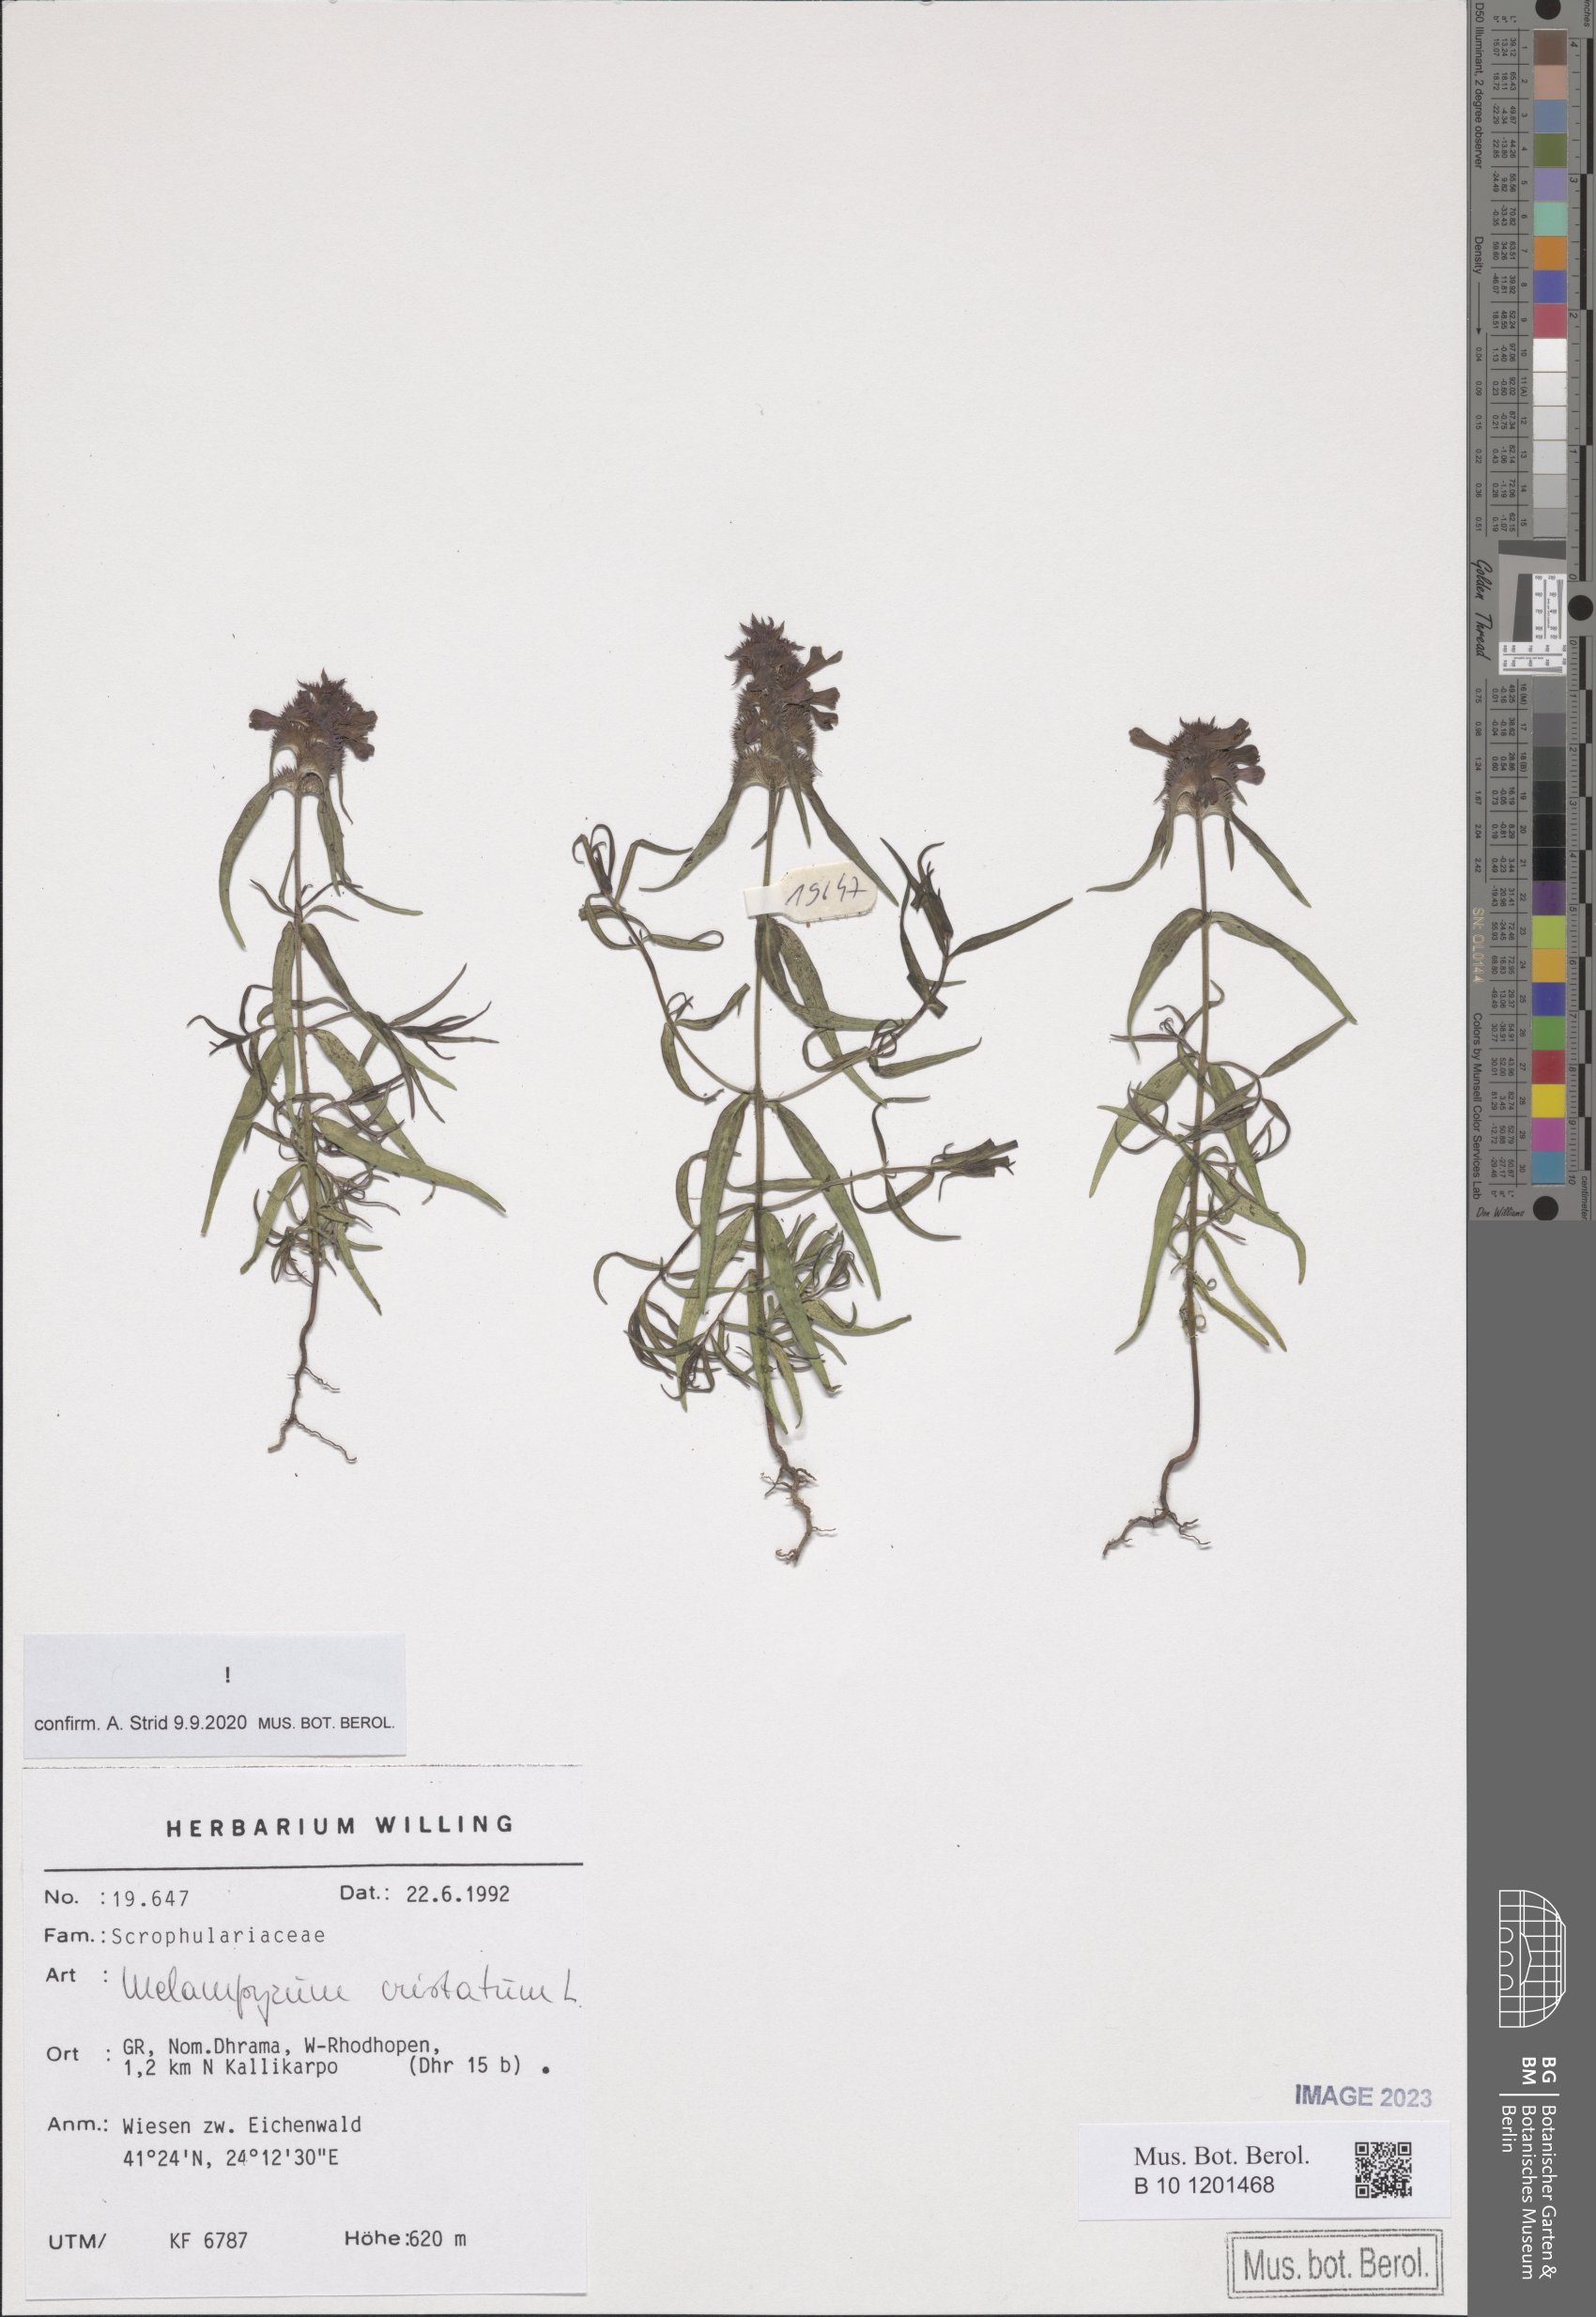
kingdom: Plantae
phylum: Tracheophyta
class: Magnoliopsida
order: Lamiales
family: Orobanchaceae
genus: Melampyrum
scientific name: Melampyrum cristatum
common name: Crested cow-wheat
